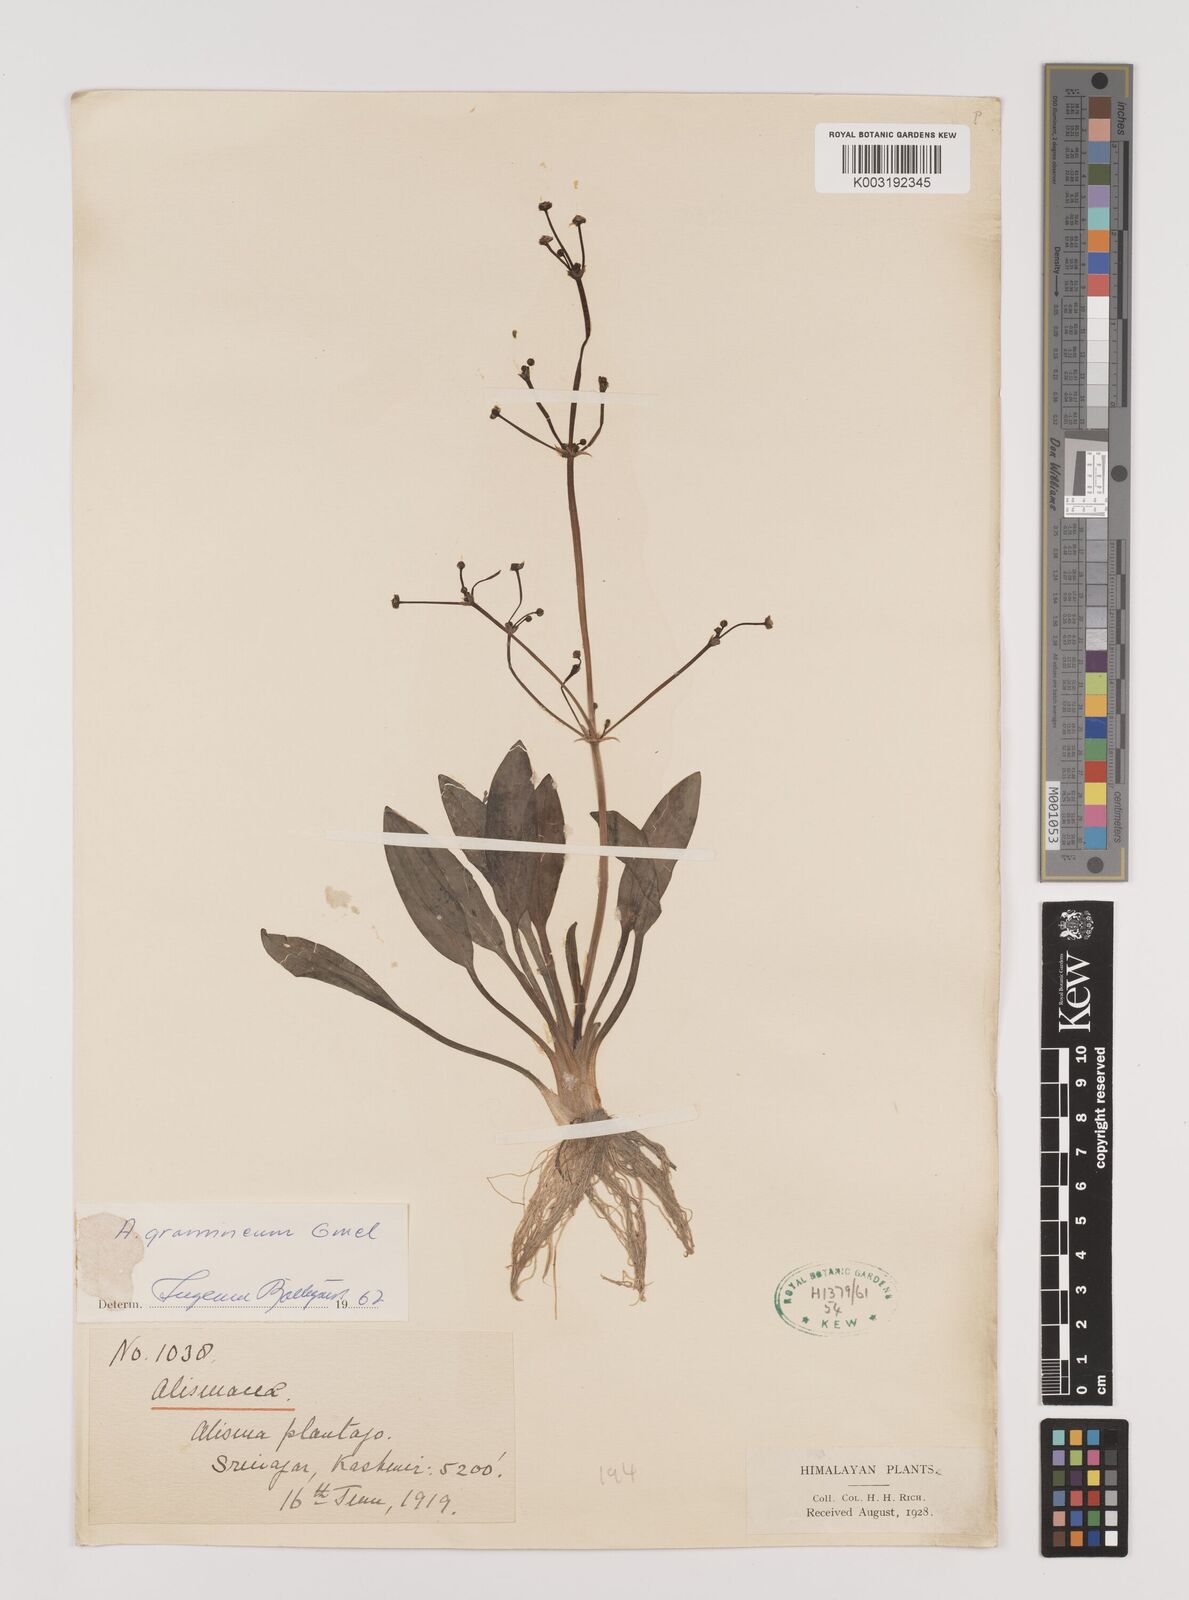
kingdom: Plantae
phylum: Tracheophyta
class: Liliopsida
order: Alismatales
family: Alismataceae
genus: Alisma
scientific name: Alisma plantago-aquatica
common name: Water-plantain
